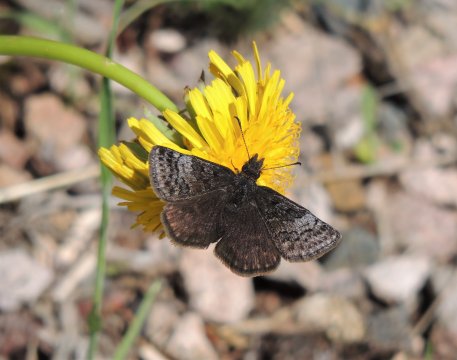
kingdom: Animalia
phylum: Arthropoda
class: Insecta
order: Lepidoptera
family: Hesperiidae
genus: Erynnis
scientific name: Erynnis icelus
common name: Dreamy Duskywing
